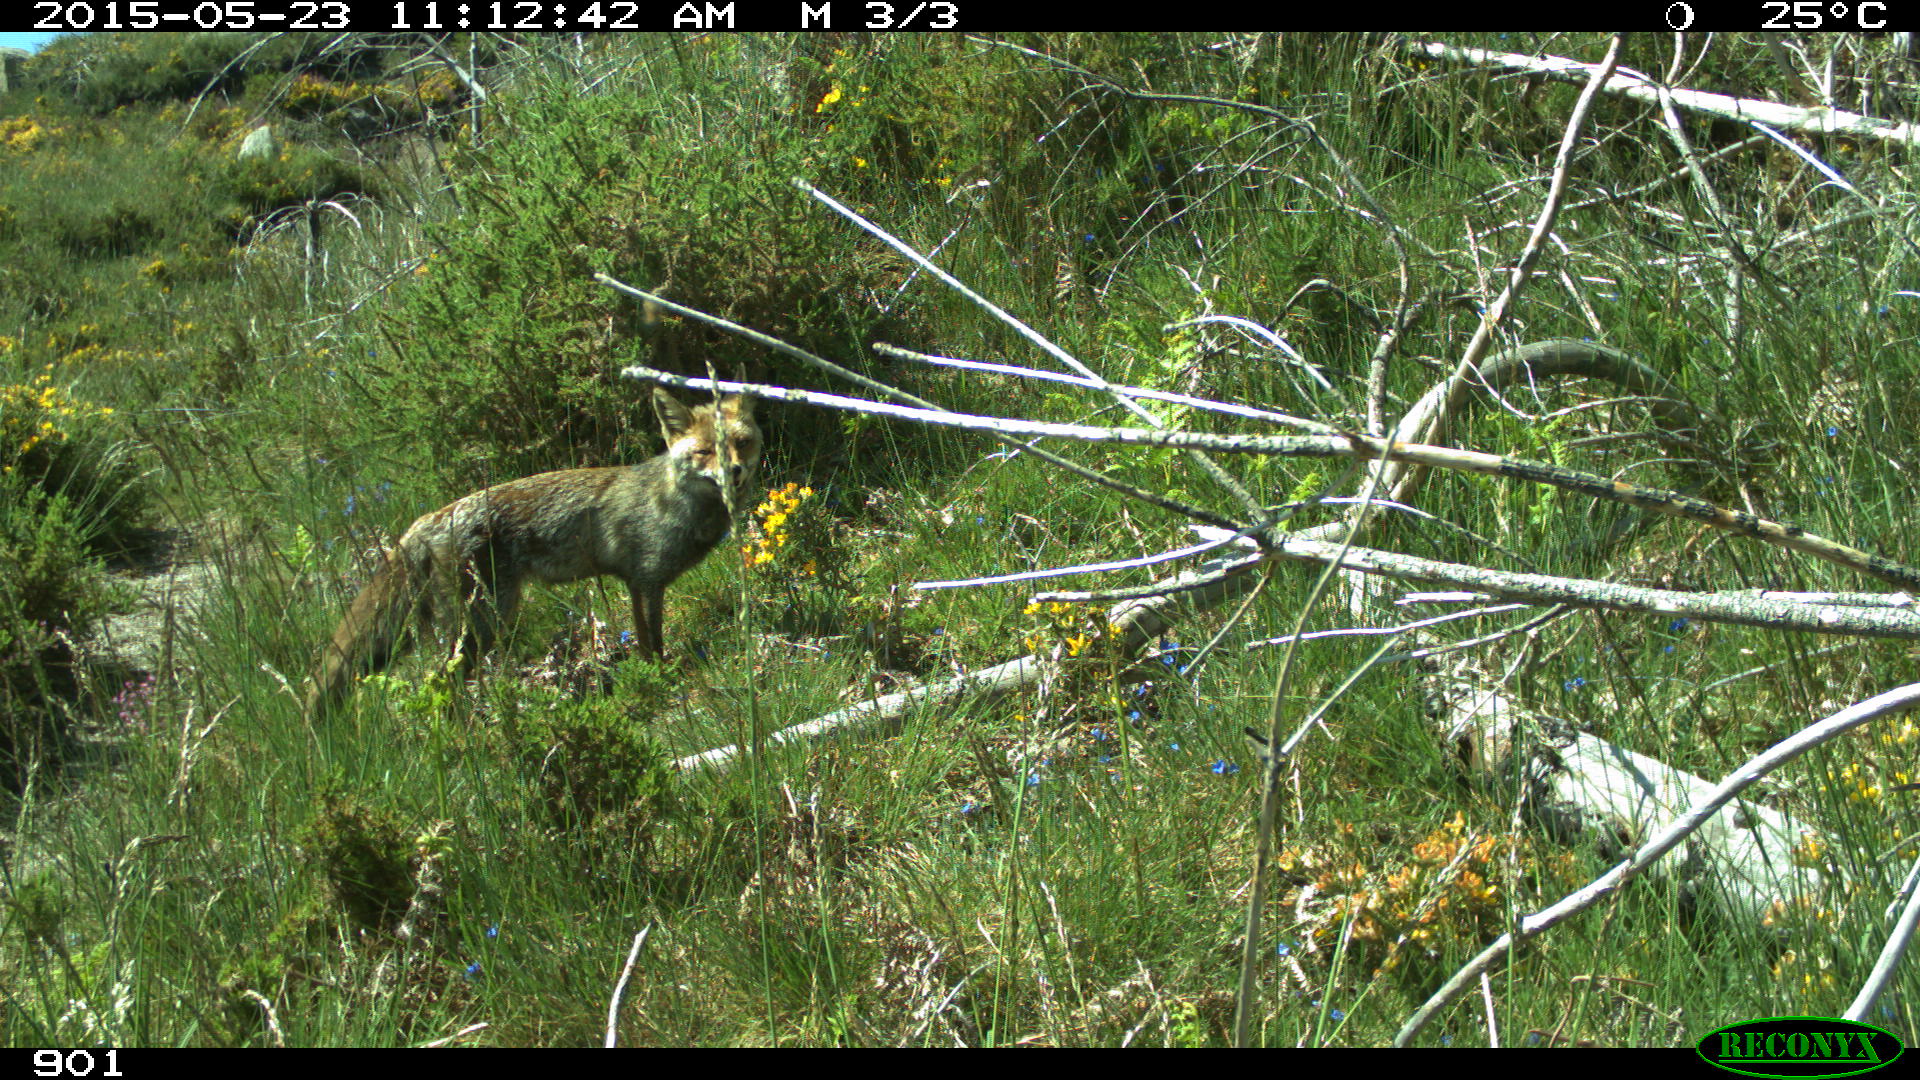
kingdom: Animalia
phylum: Chordata
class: Mammalia
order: Carnivora
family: Canidae
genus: Vulpes
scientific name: Vulpes vulpes
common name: Red fox
